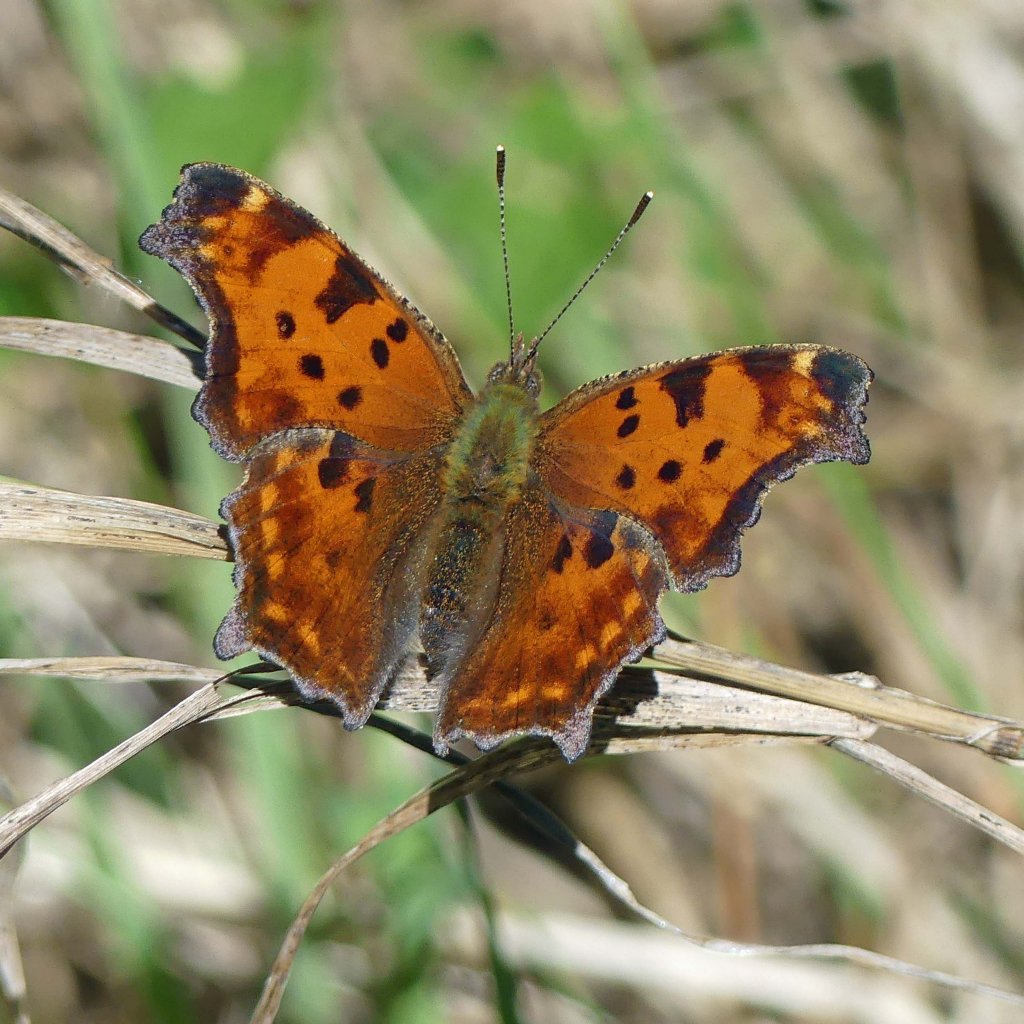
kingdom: Animalia
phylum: Arthropoda
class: Insecta
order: Lepidoptera
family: Nymphalidae
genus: Polygonia
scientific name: Polygonia comma
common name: Eastern Comma
